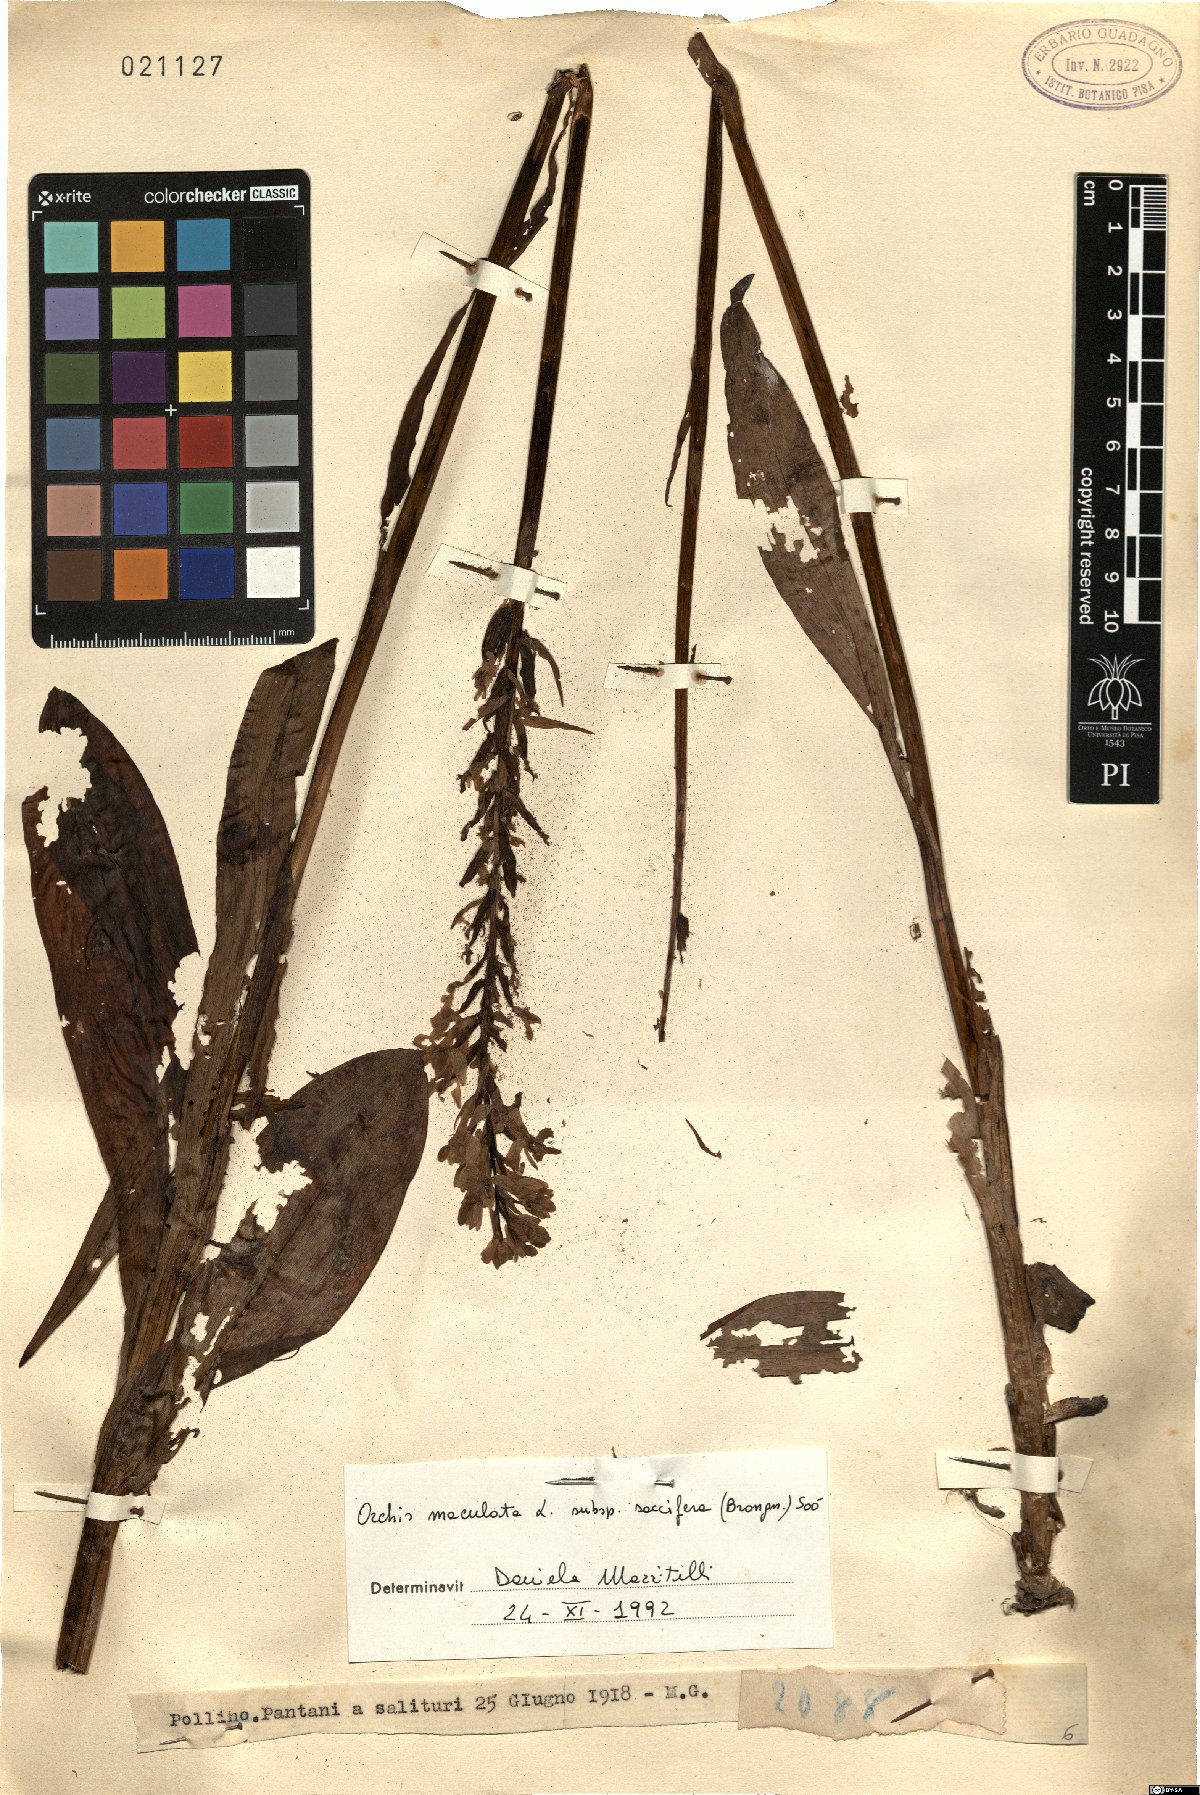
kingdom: Plantae
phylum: Tracheophyta
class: Liliopsida
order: Asparagales
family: Orchidaceae
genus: Dactylorhiza
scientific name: Dactylorhiza maculata
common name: Heath spotted-orchid
